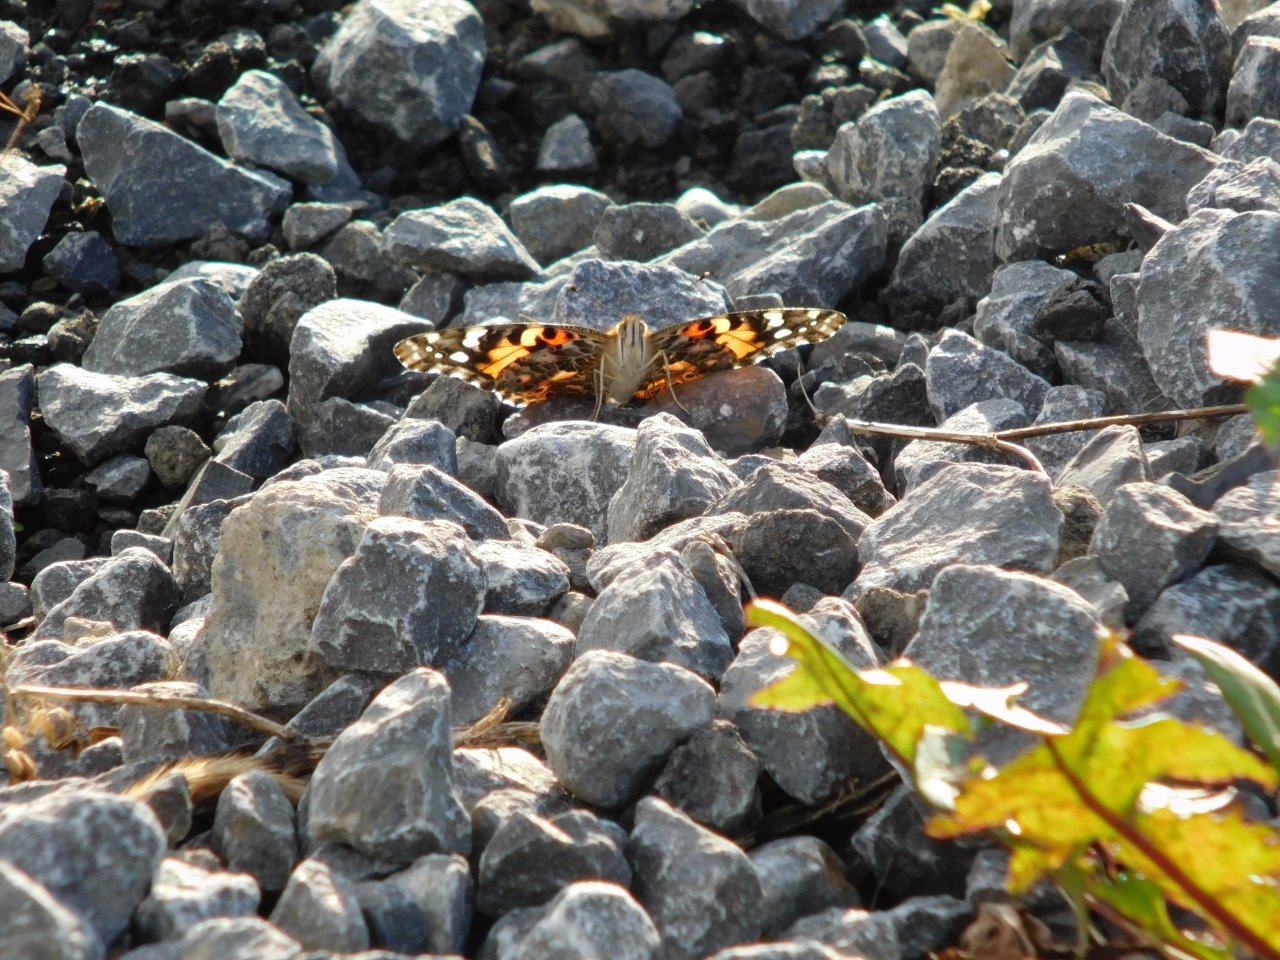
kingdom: Animalia
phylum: Arthropoda
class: Insecta
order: Lepidoptera
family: Nymphalidae
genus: Vanessa
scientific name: Vanessa cardui
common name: Painted Lady
